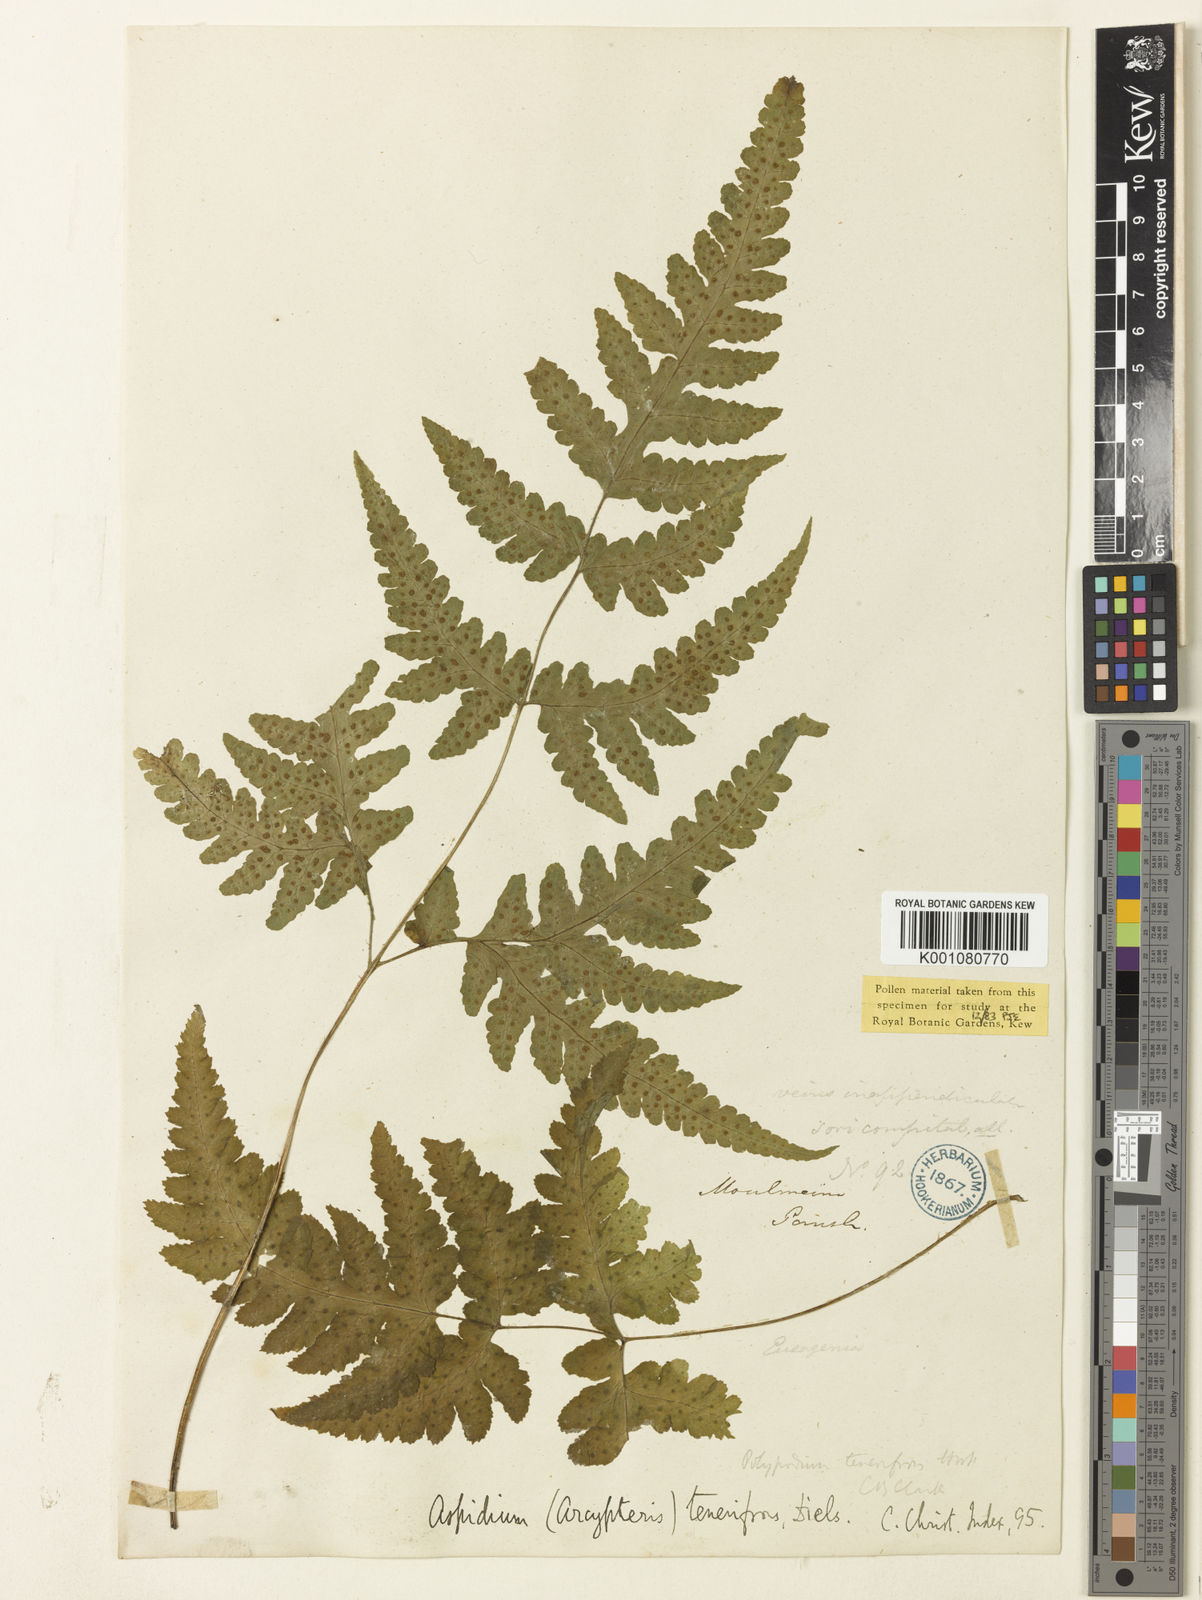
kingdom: Plantae
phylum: Tracheophyta
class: Polypodiopsida
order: Polypodiales
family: Tectariaceae
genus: Tectaria
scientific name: Tectaria tenerifrons
